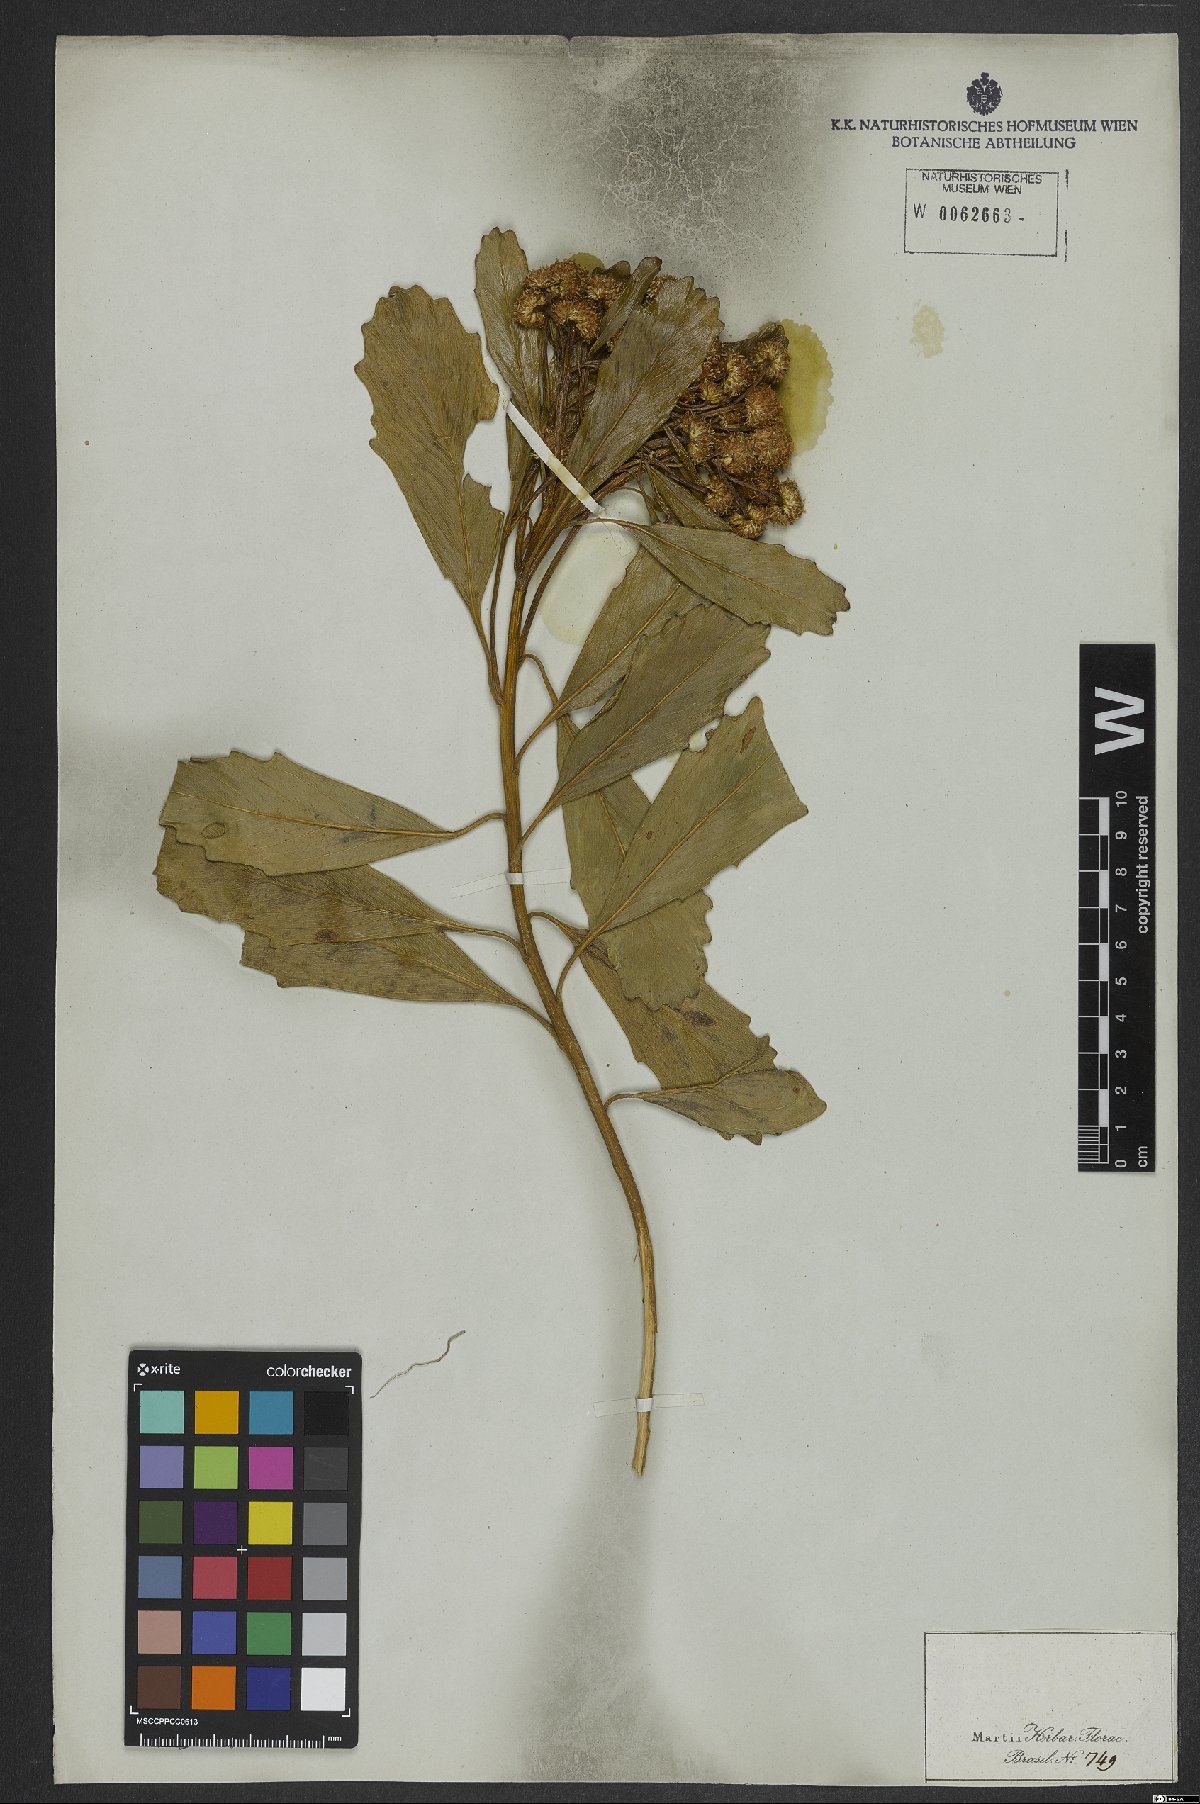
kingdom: Plantae
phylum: Tracheophyta
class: Magnoliopsida
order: Asterales
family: Asteraceae
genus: Baccharis
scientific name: Baccharis platypoda
